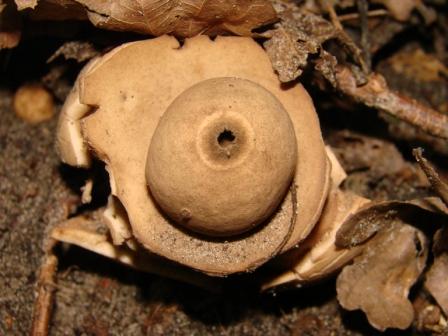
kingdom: Fungi
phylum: Basidiomycota
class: Agaricomycetes
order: Geastrales
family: Geastraceae
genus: Geastrum
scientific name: Geastrum michelianum
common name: kødet stjernebold
